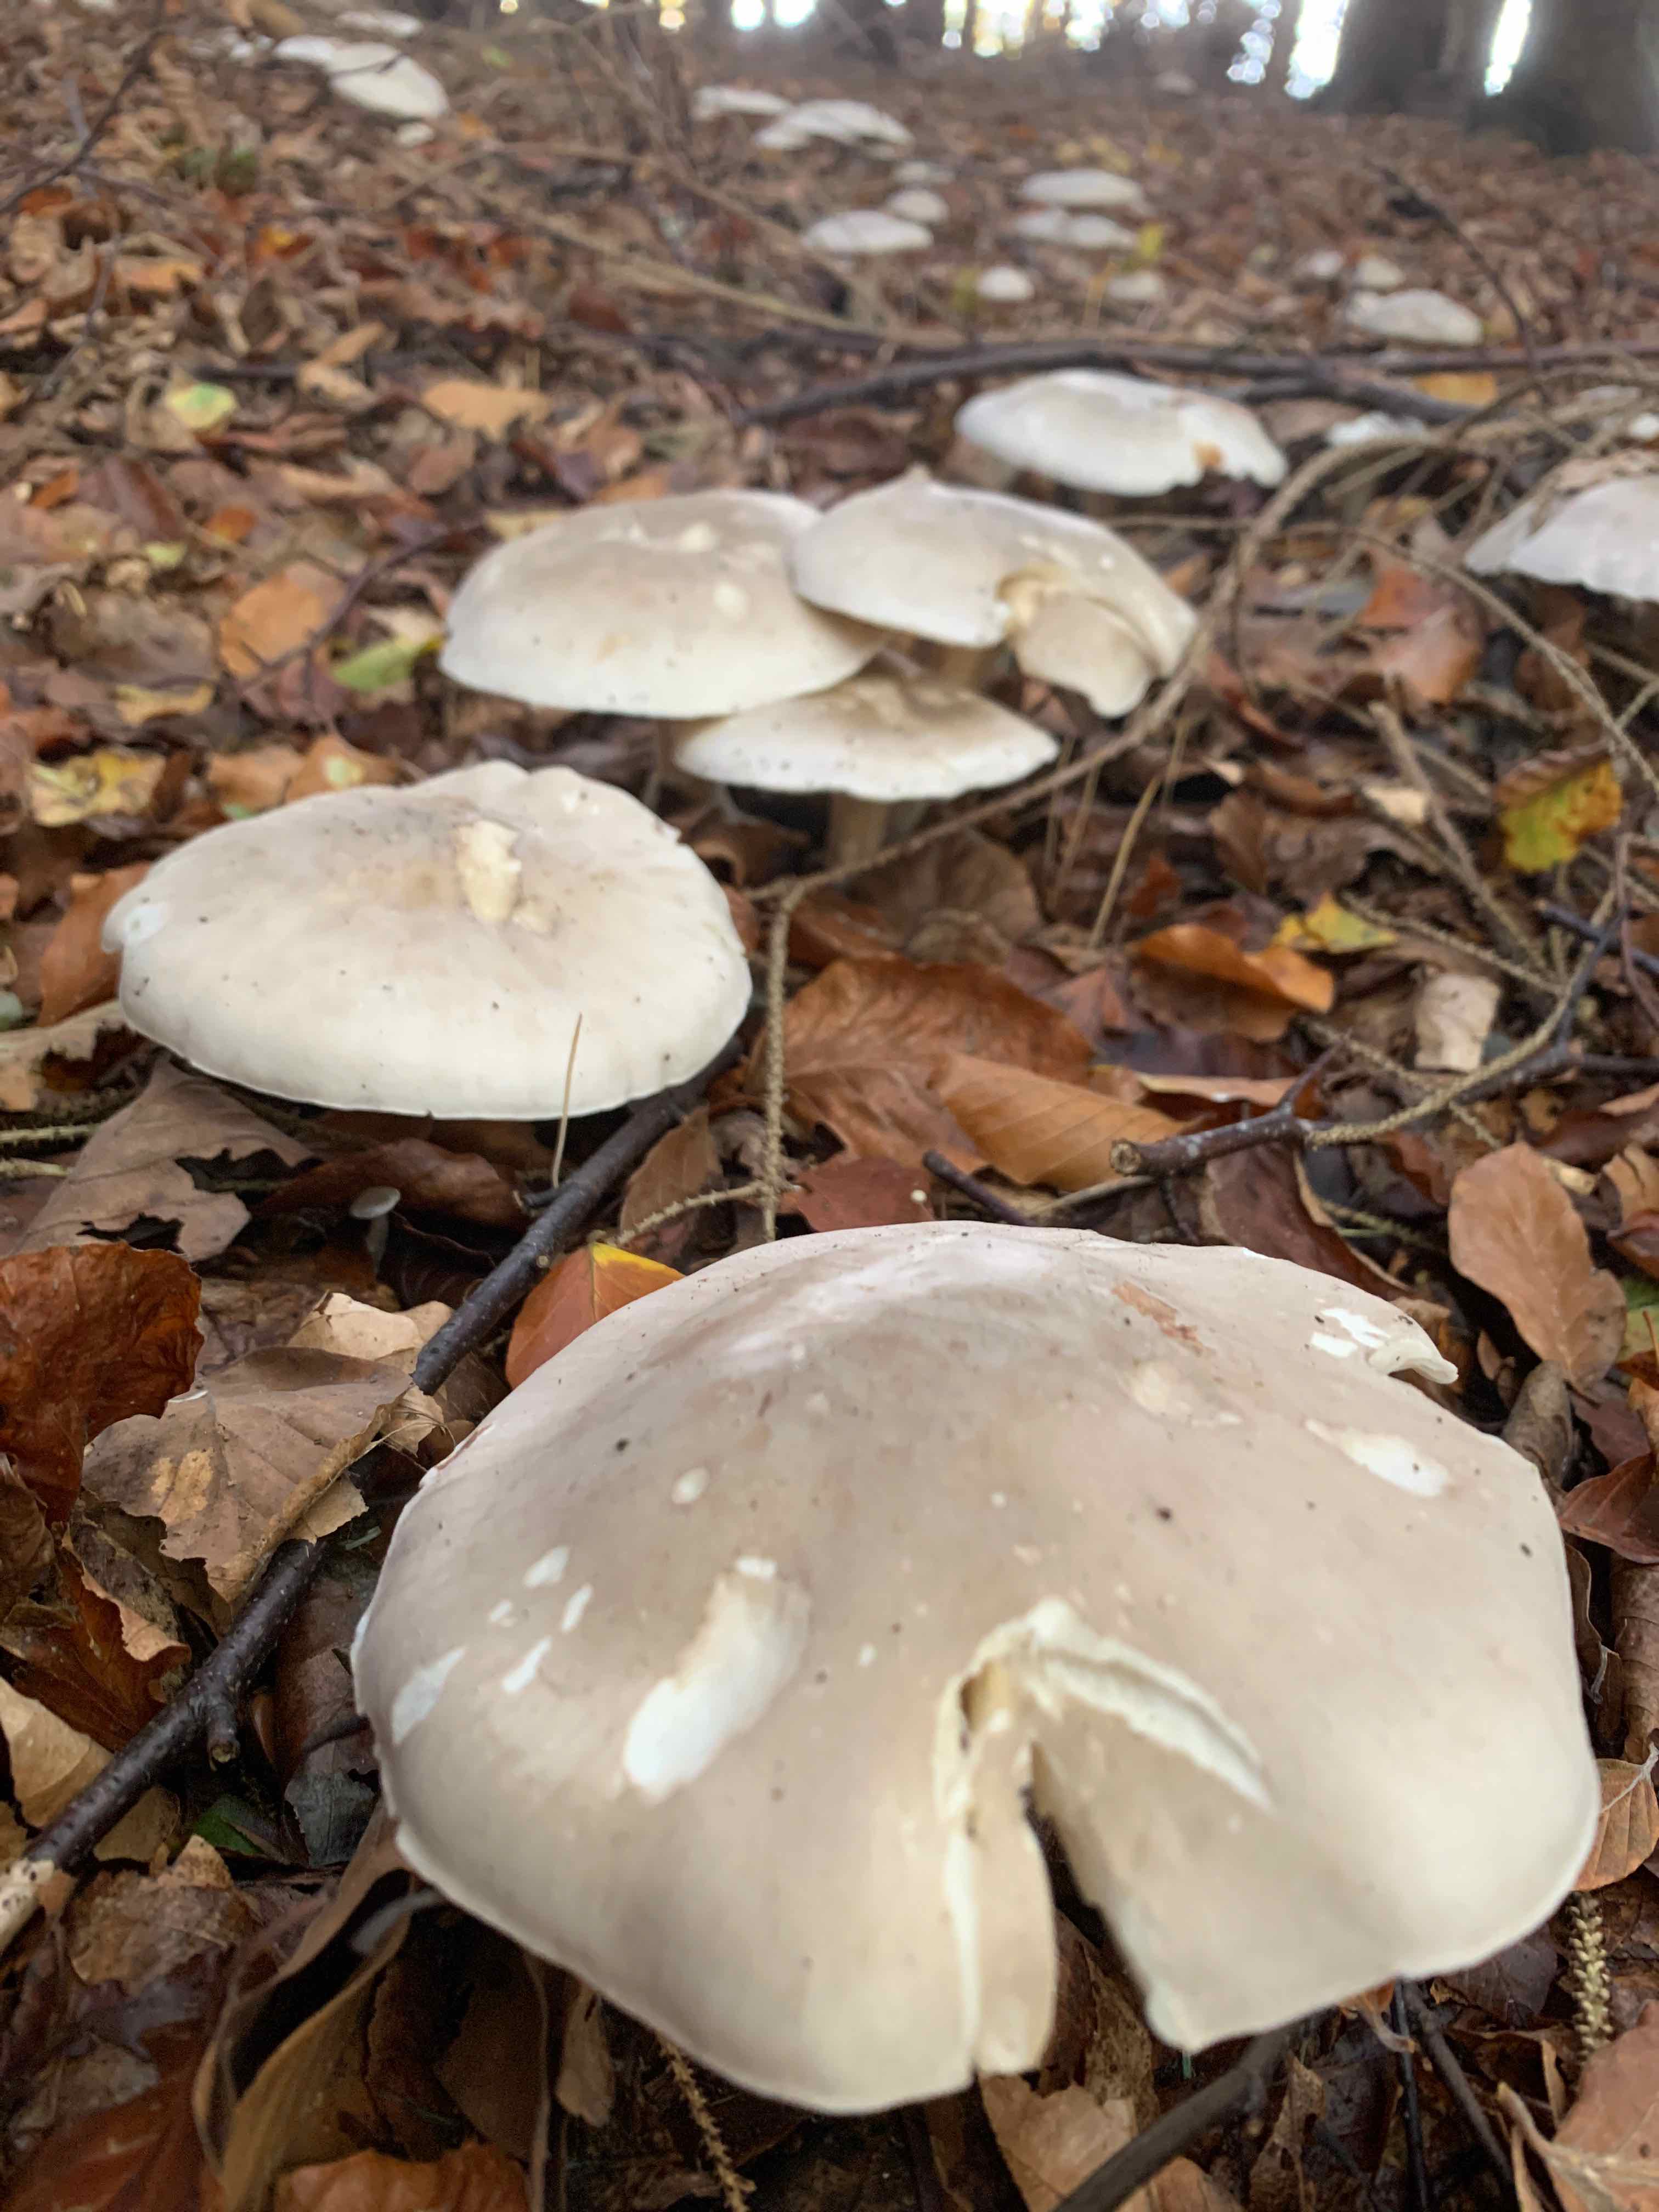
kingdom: Fungi
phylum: Basidiomycota
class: Agaricomycetes
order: Agaricales
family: Tricholomataceae
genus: Clitocybe
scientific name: Clitocybe nebularis
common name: tåge-tragthat
